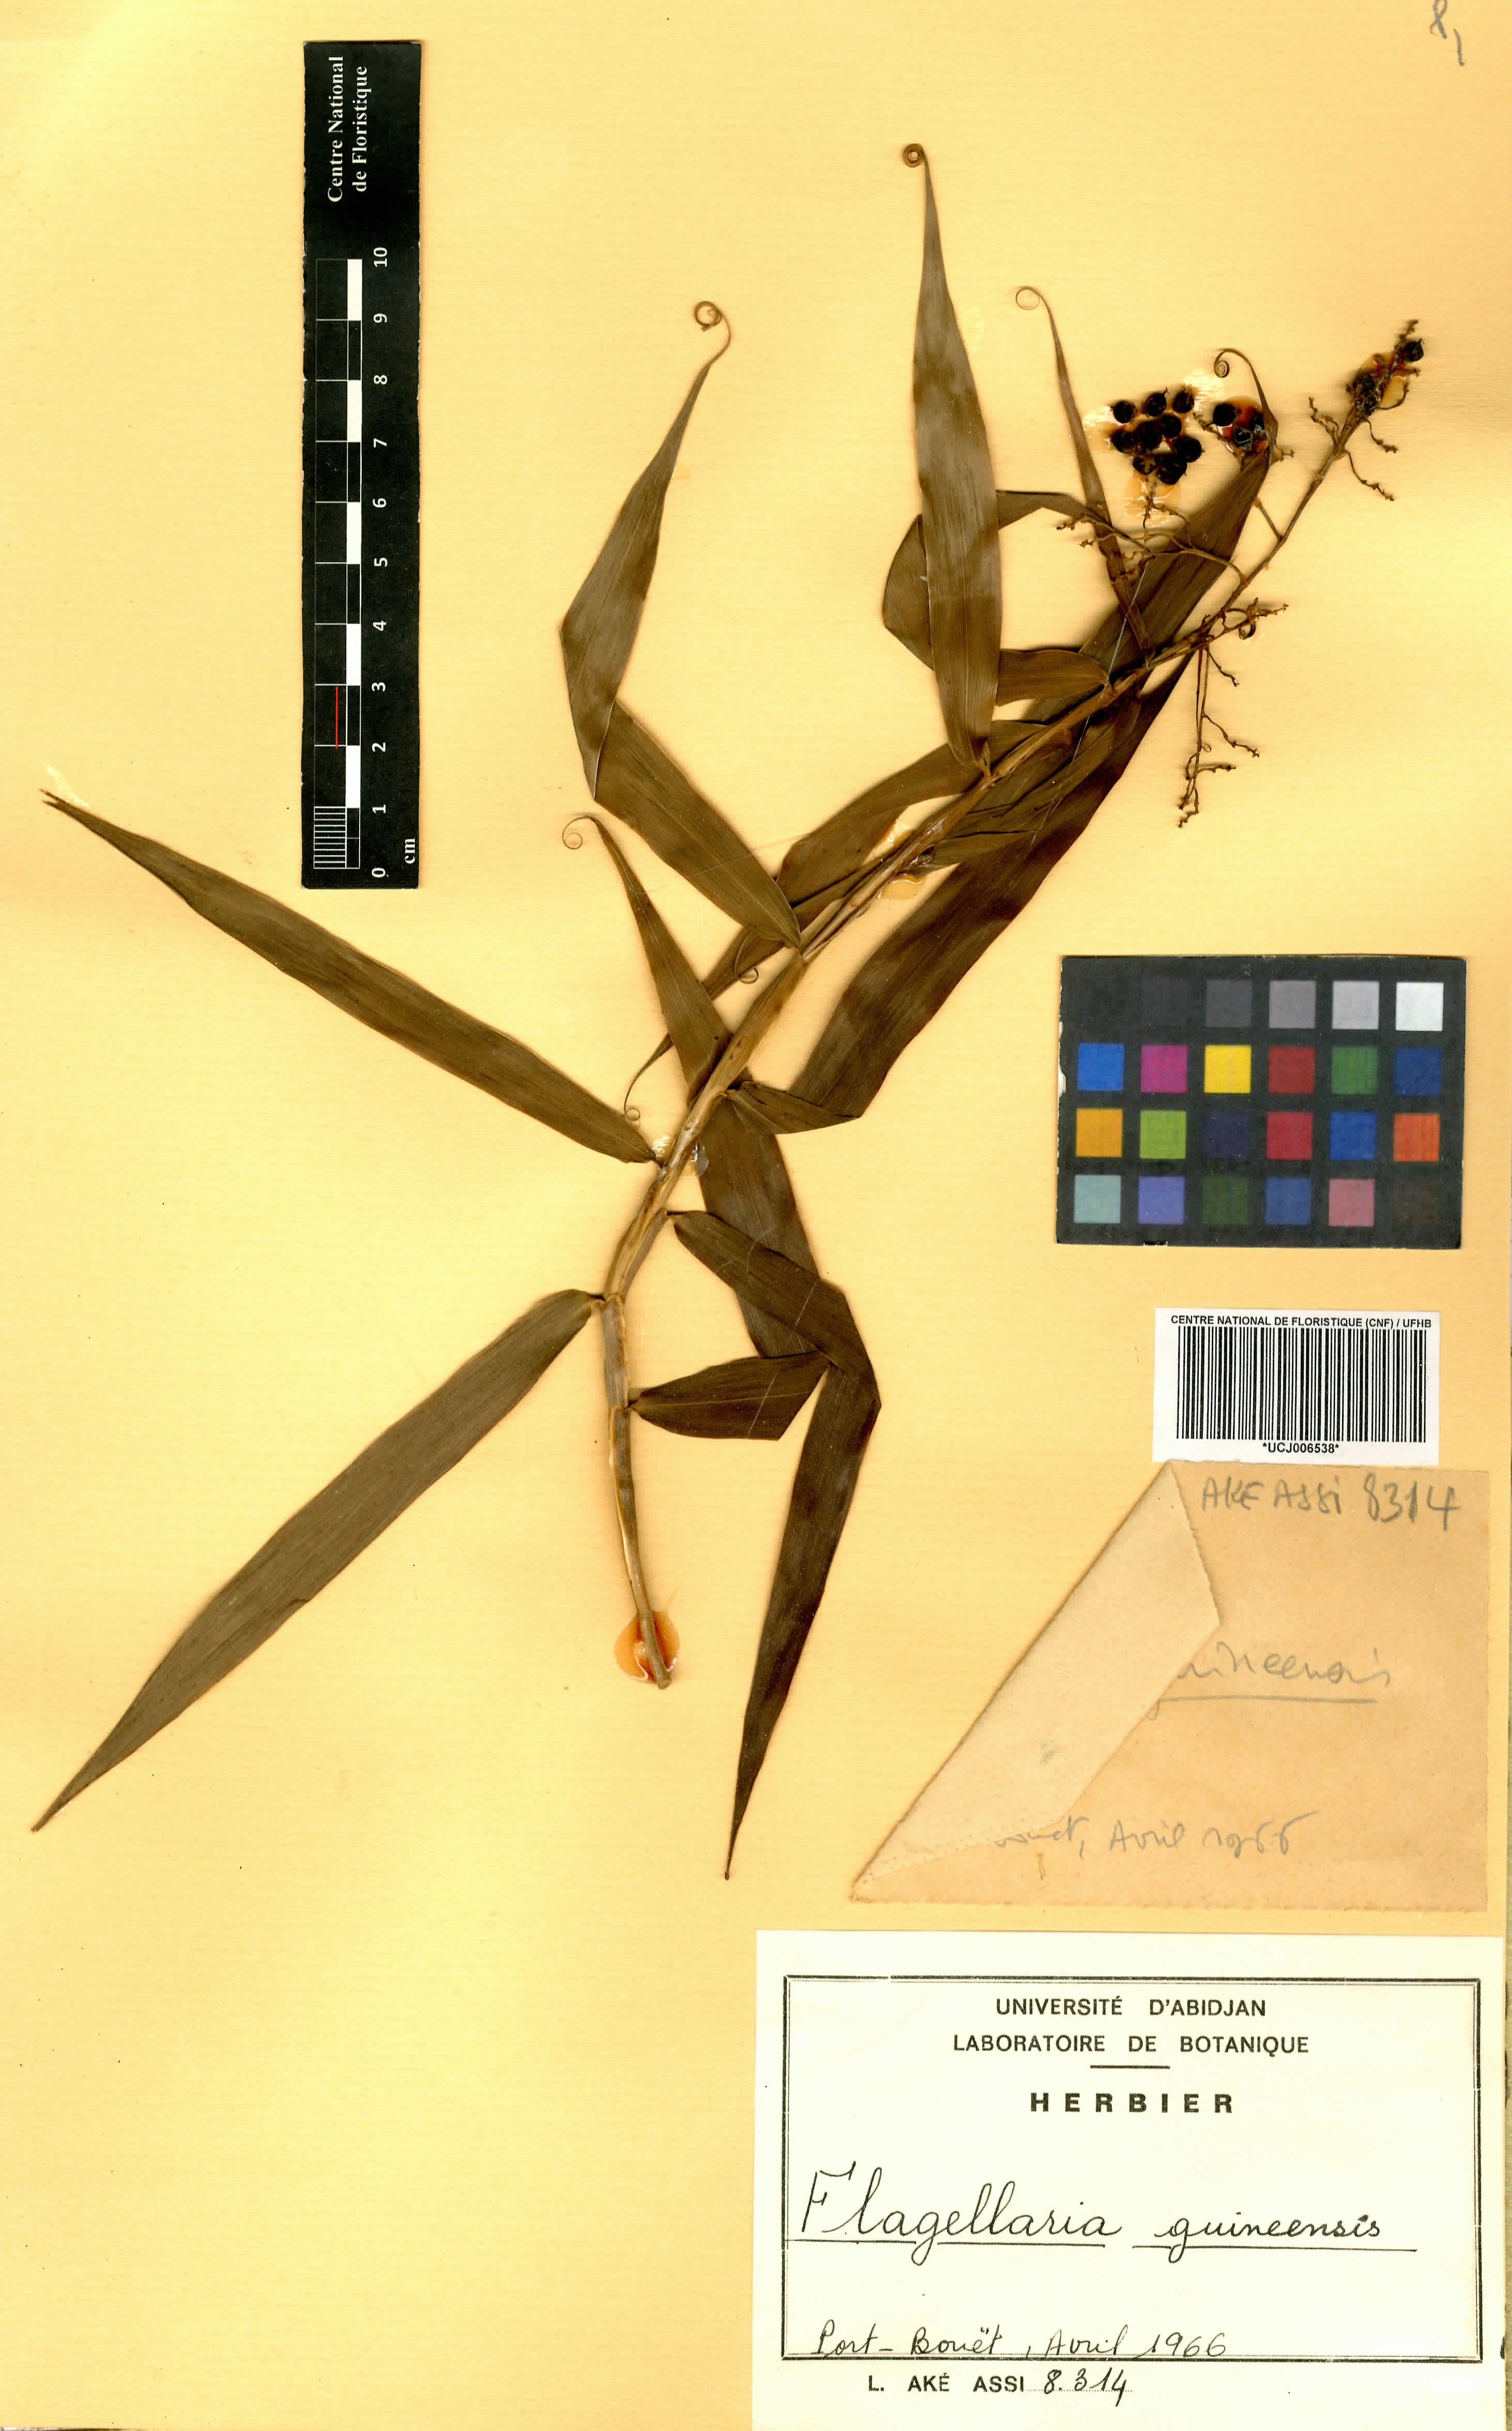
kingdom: Plantae
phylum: Tracheophyta
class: Liliopsida
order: Poales
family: Flagellariaceae
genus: Flagellaria
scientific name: Flagellaria guineensis
